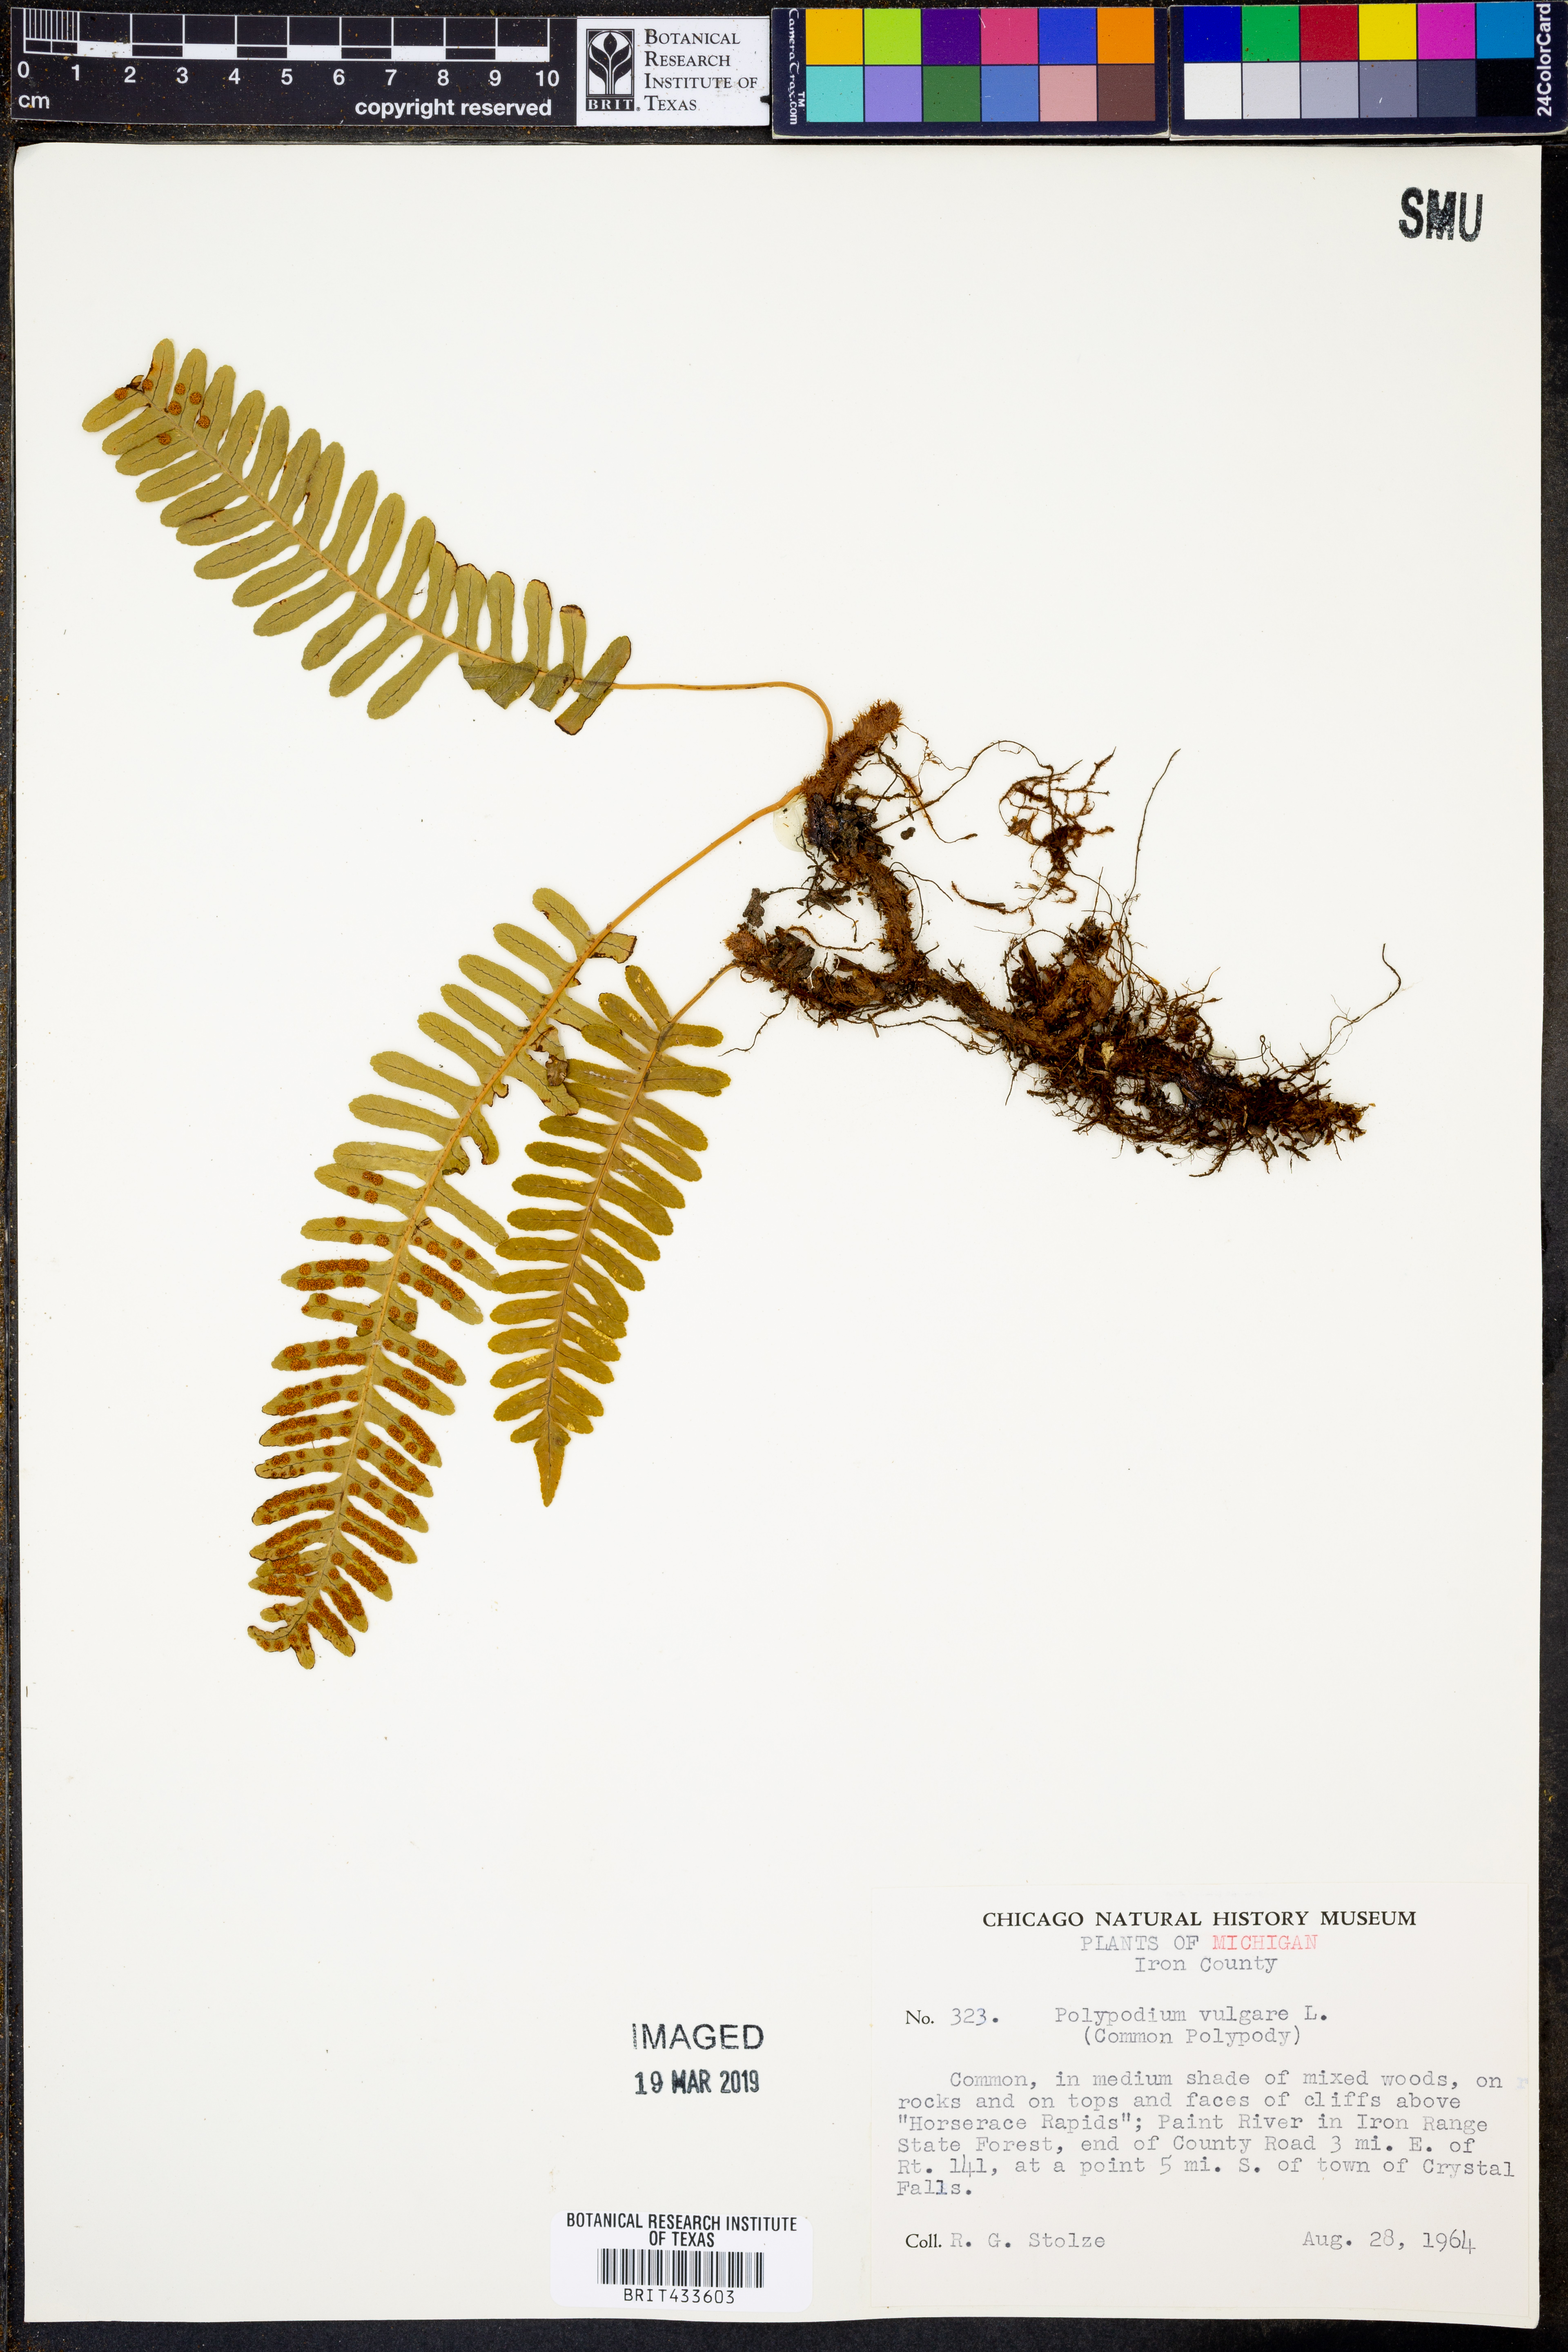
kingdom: Plantae
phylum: Tracheophyta
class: Polypodiopsida
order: Polypodiales
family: Polypodiaceae
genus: Polypodium
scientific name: Polypodium vulgare
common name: Common polypody
